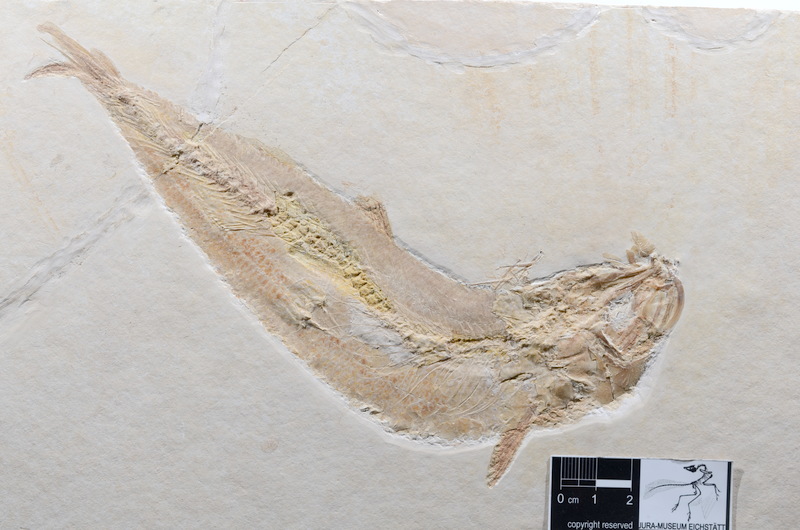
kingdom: Animalia
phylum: Chordata
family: Ascalaboidae
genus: Tharsis
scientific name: Tharsis dubius
